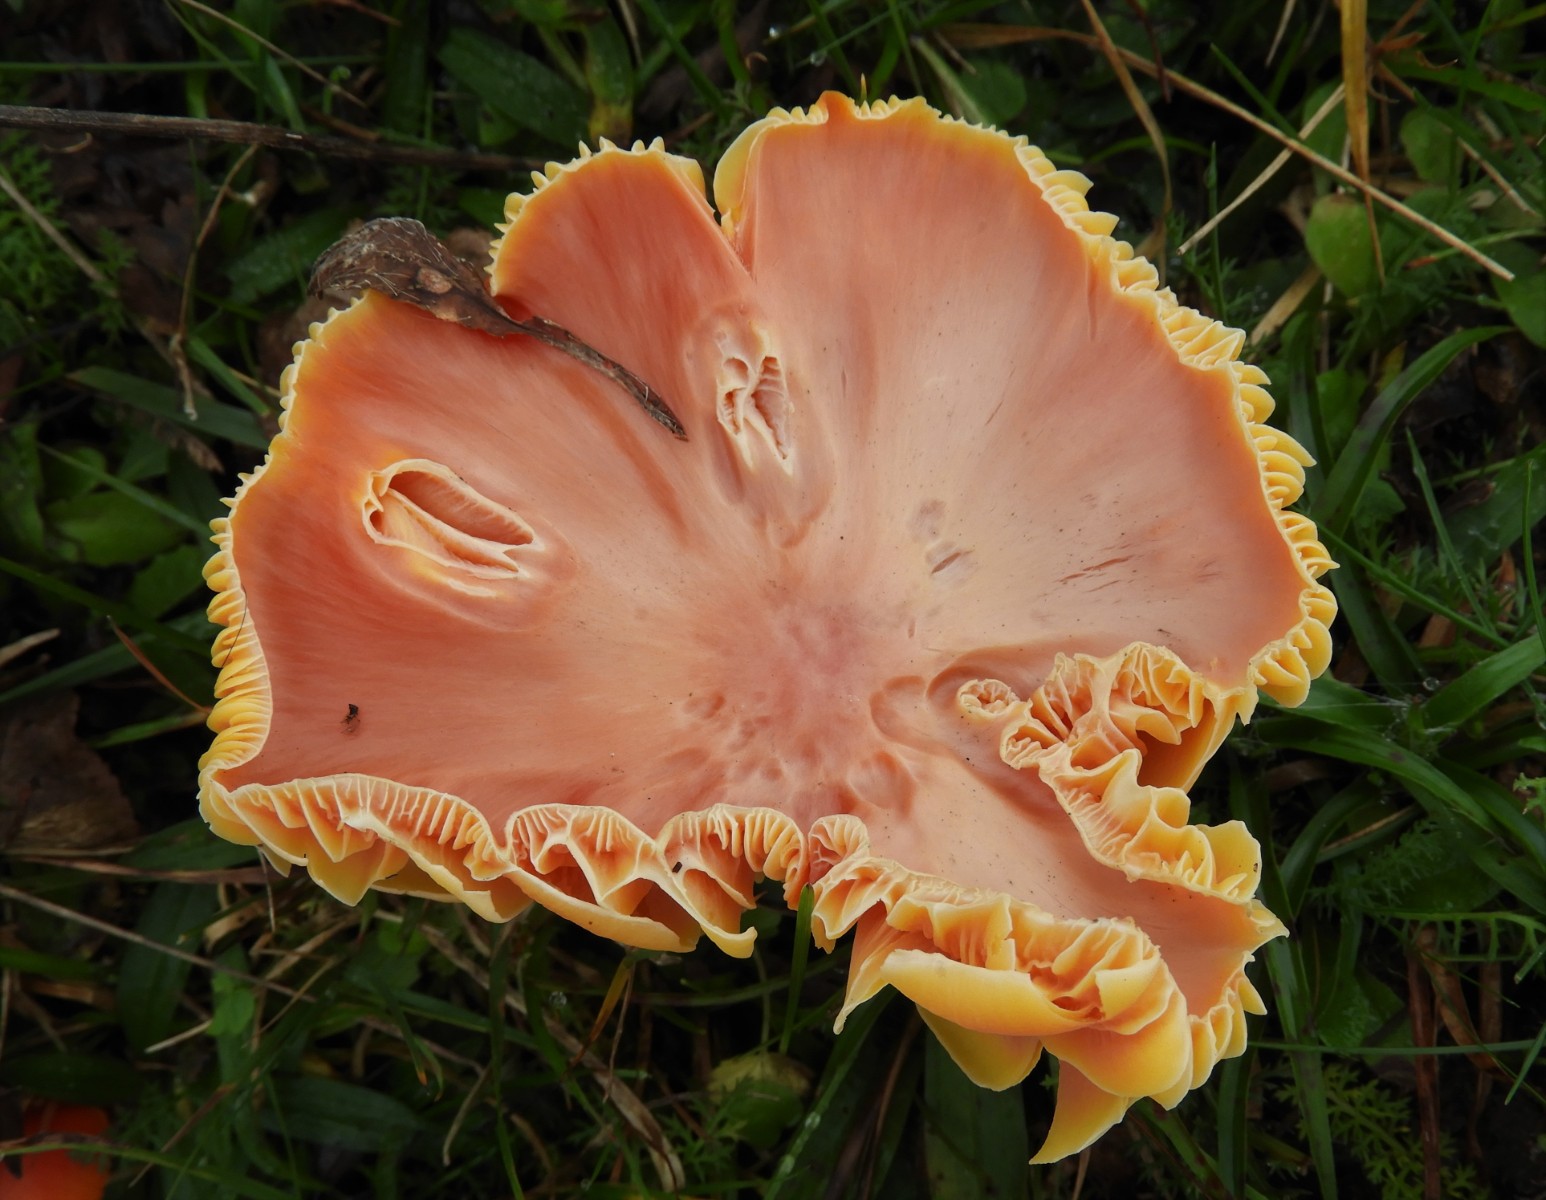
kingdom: Fungi
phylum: Basidiomycota
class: Agaricomycetes
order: Agaricales
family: Hygrophoraceae
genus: Hygrocybe
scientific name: Hygrocybe splendidissima
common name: knaldrød vokshat
